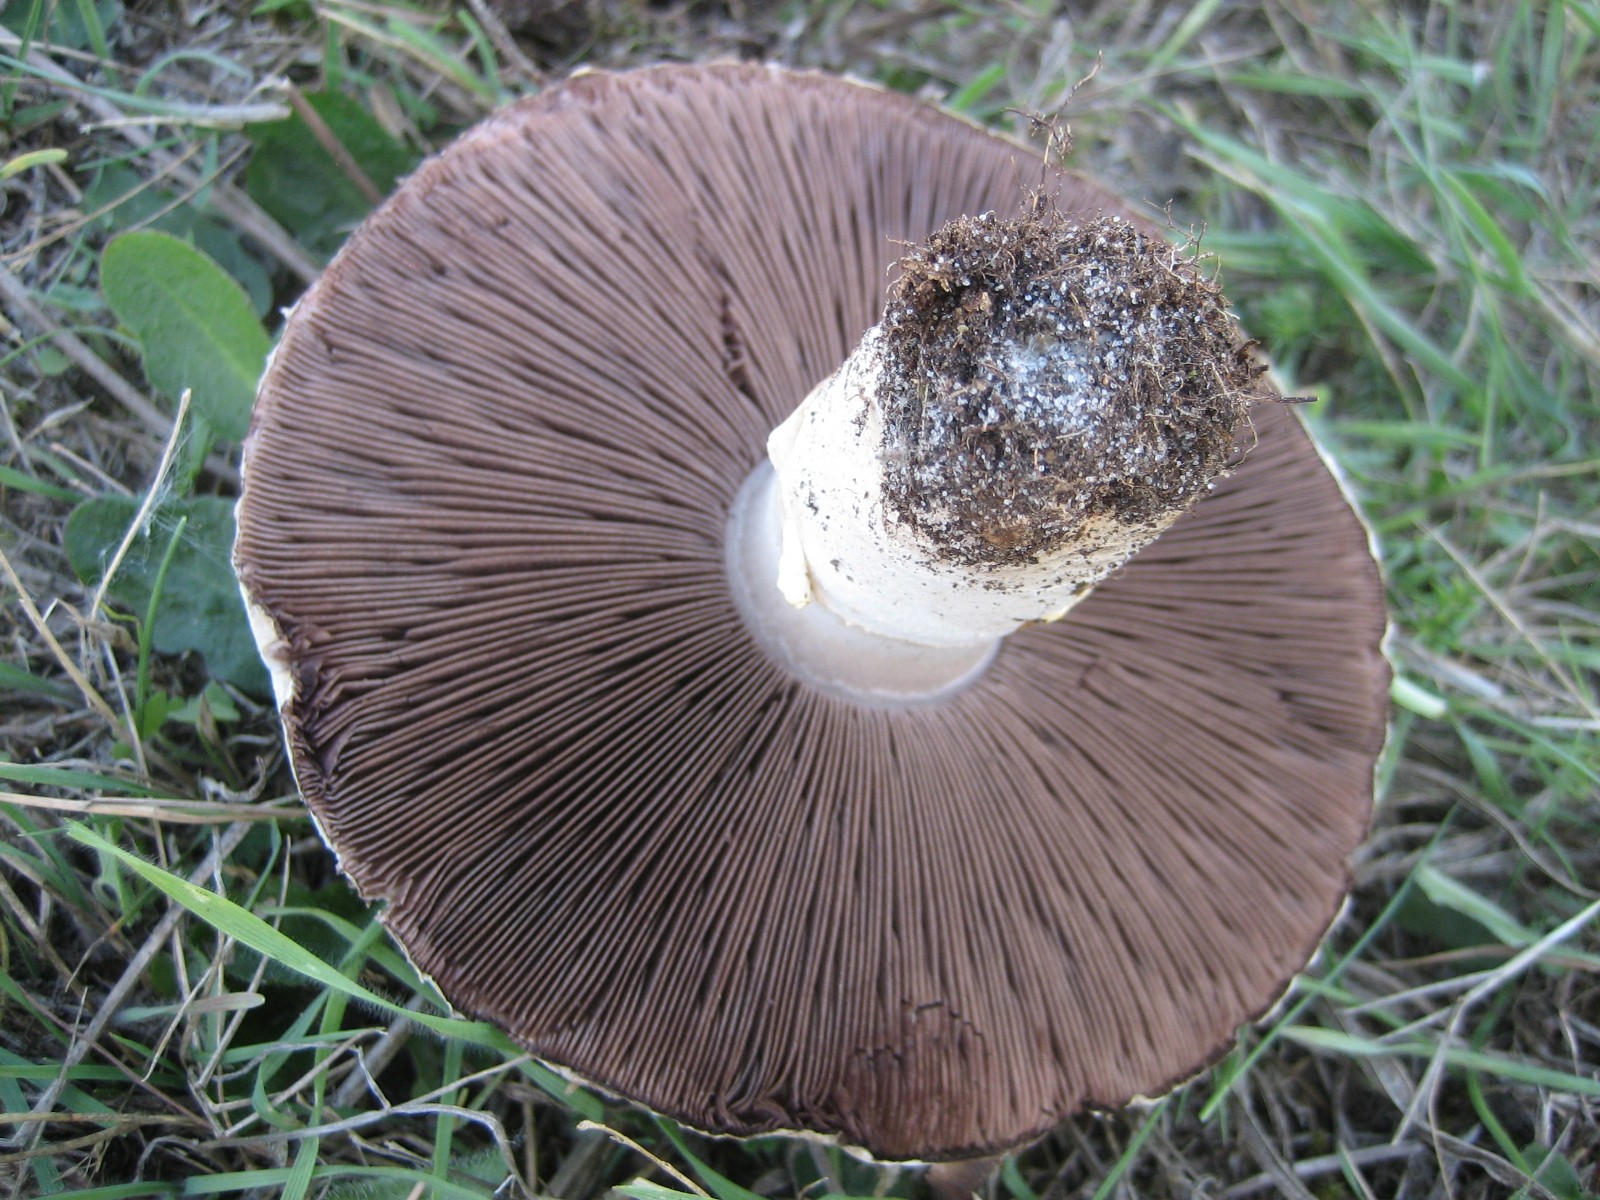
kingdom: Fungi
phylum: Basidiomycota
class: Agaricomycetes
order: Agaricales
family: Agaricaceae
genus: Agaricus
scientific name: Agaricus bernardii
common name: strandengs-champignon
